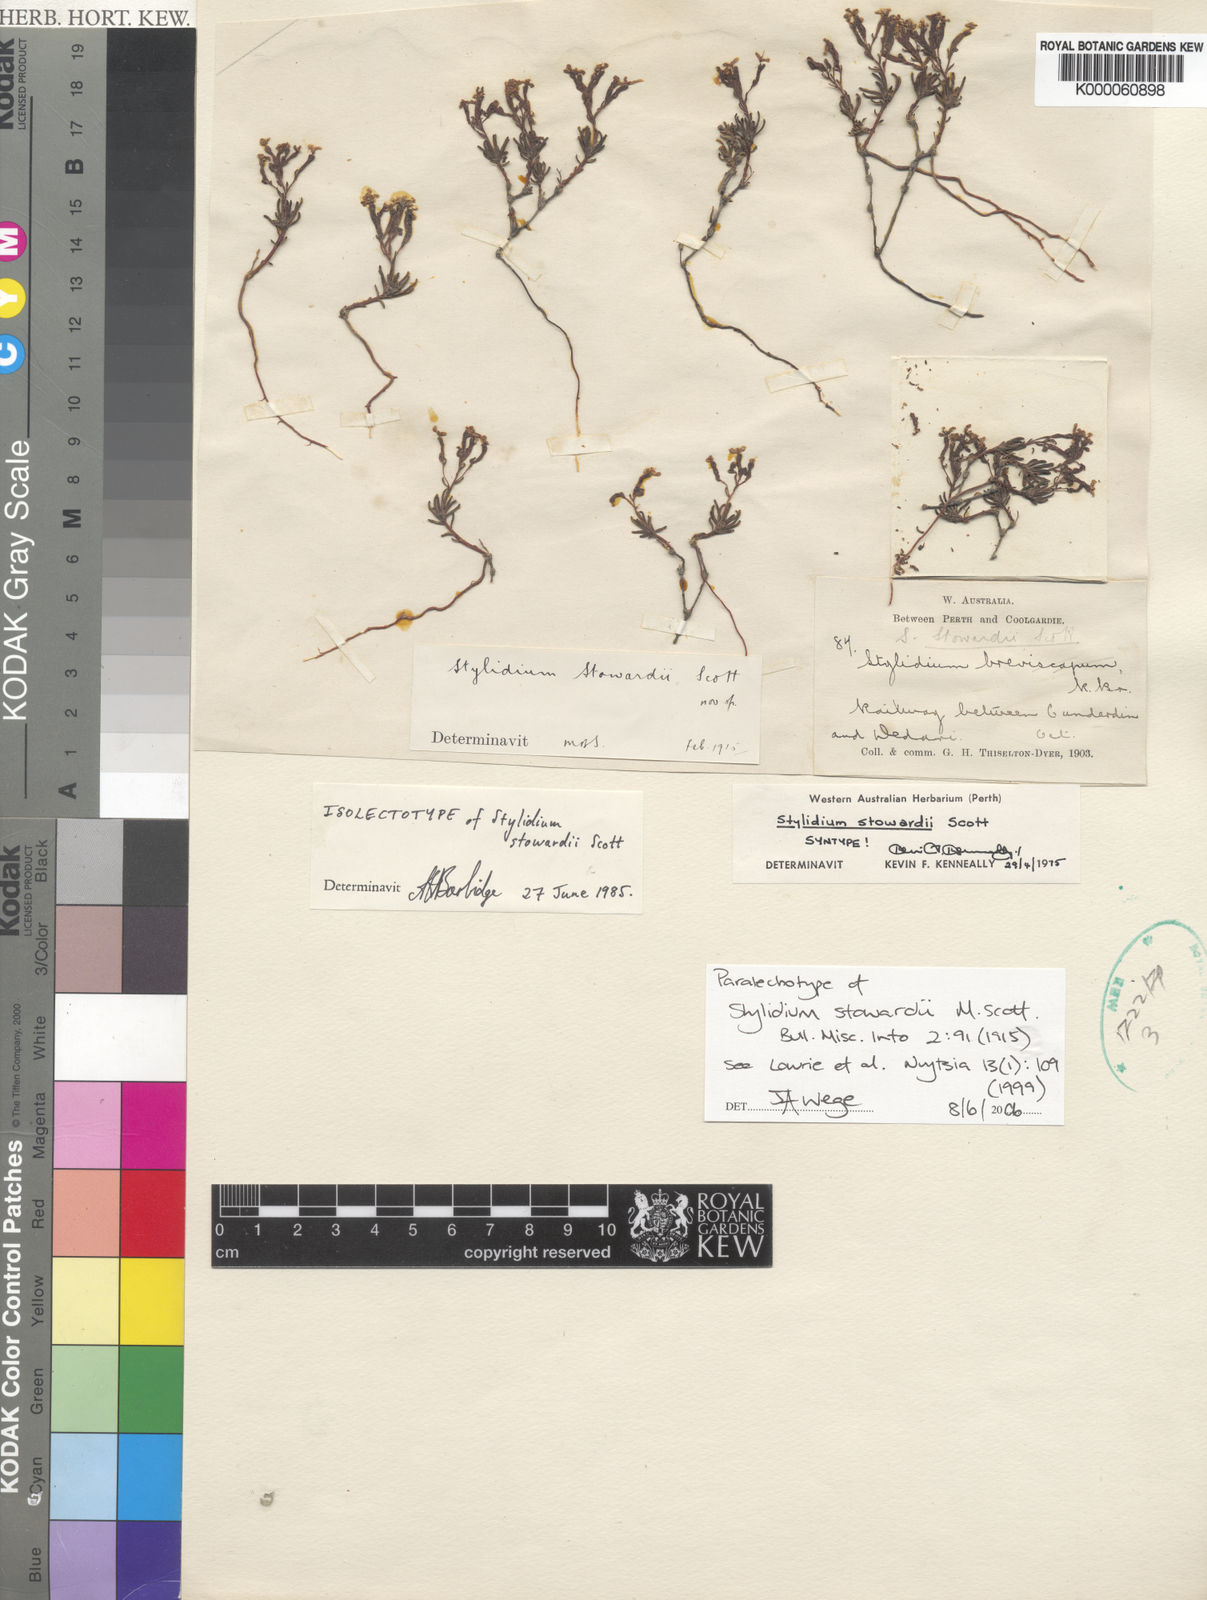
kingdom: Plantae
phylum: Tracheophyta
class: Magnoliopsida
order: Asterales
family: Stylidiaceae
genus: Stylidium
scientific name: Stylidium involucratum
